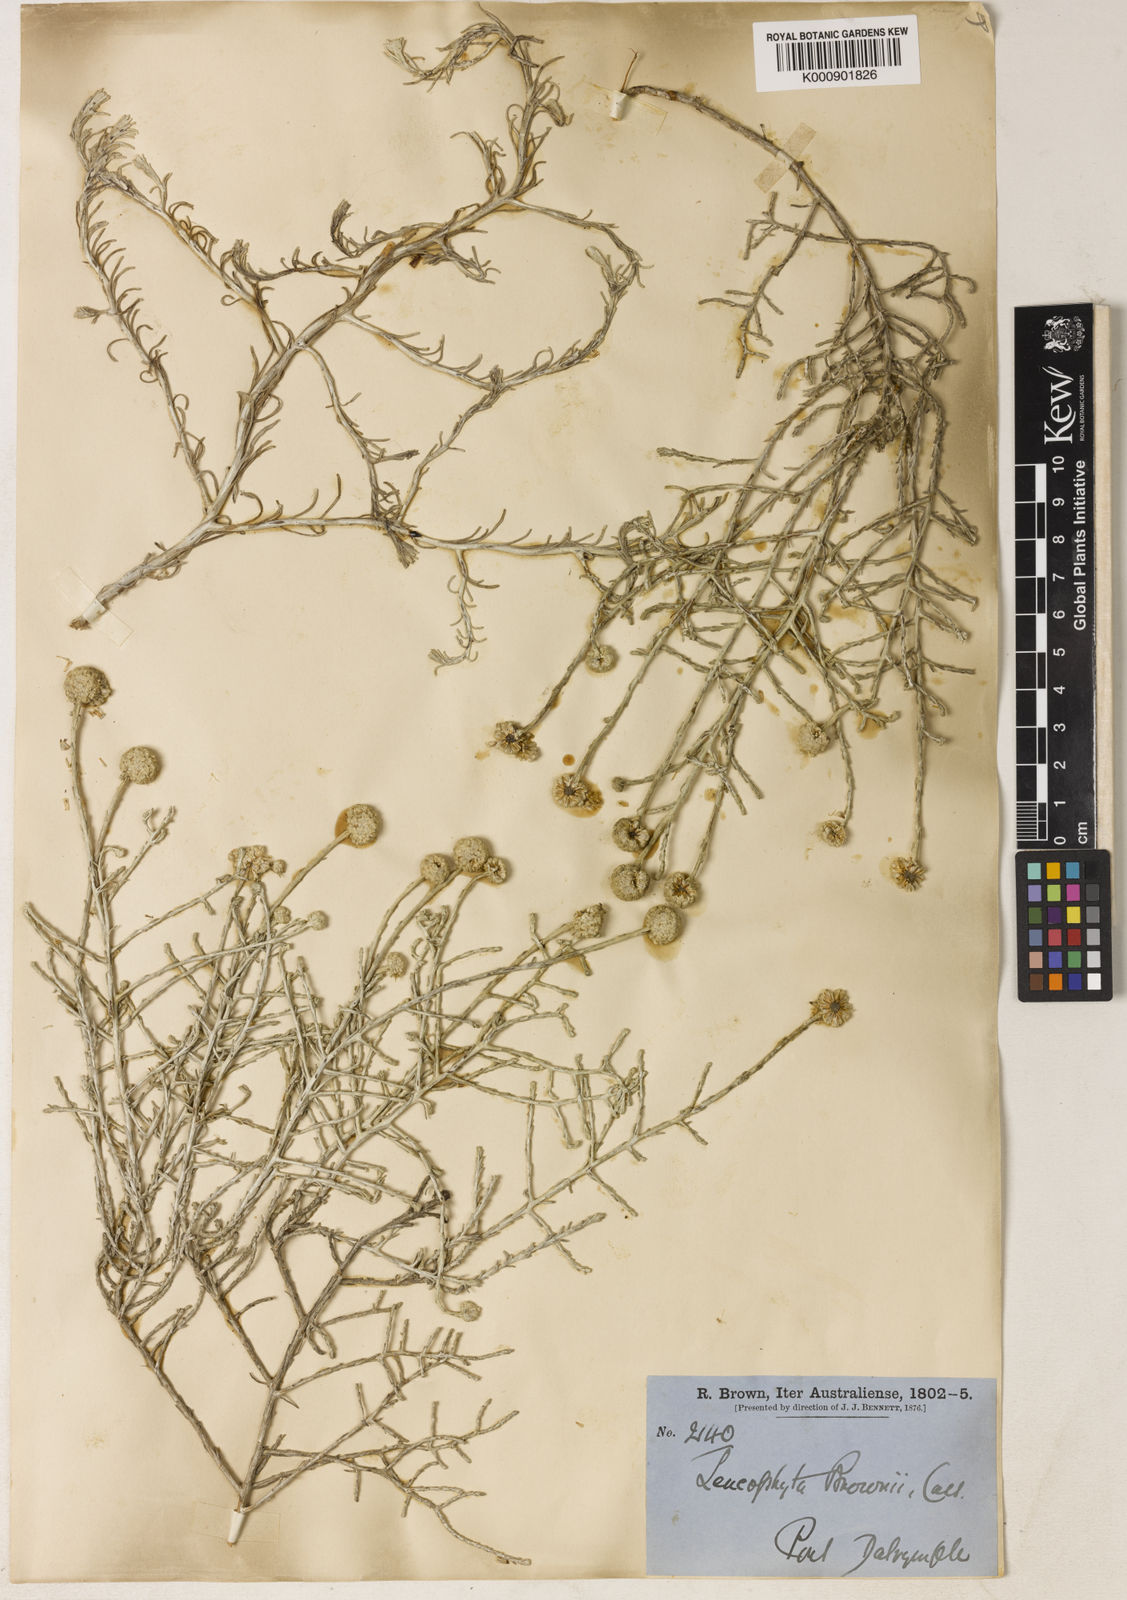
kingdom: Plantae
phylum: Tracheophyta
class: Magnoliopsida
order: Asterales
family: Asteraceae
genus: Calocephalus
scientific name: Calocephalus brownii
